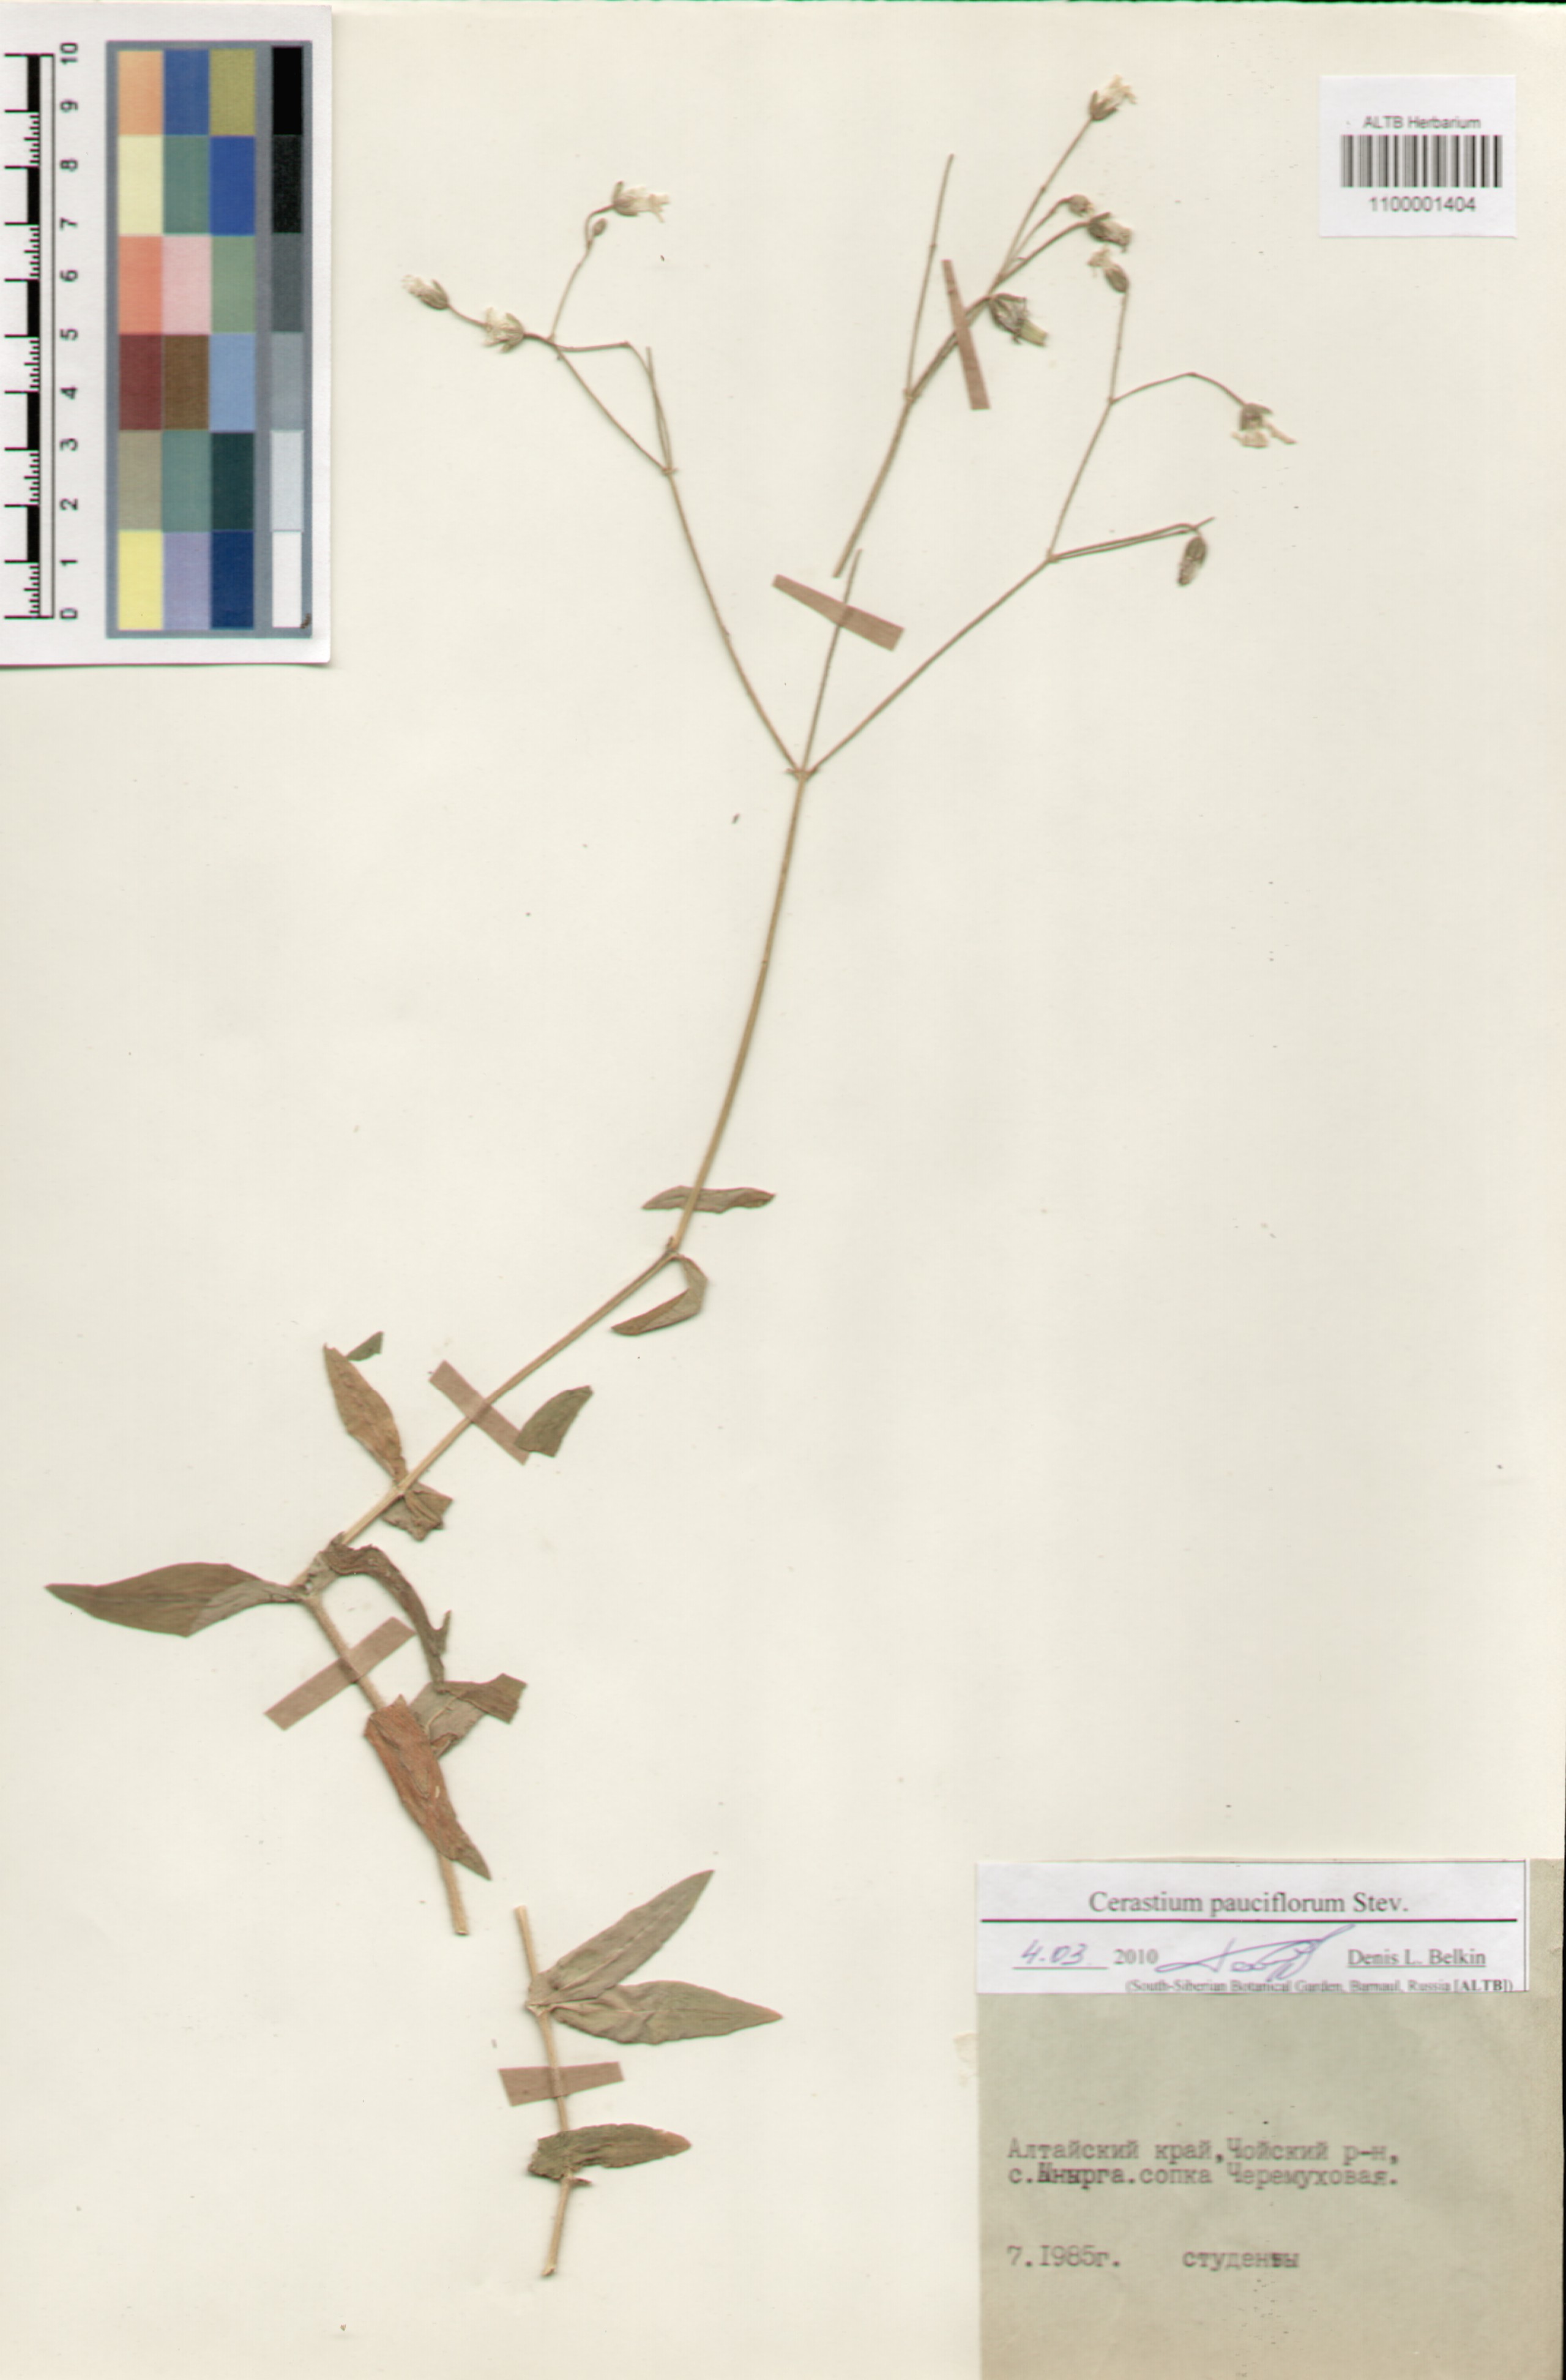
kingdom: Plantae
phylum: Tracheophyta
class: Magnoliopsida
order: Caryophyllales
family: Caryophyllaceae
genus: Cerastium
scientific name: Cerastium pauciflorum
